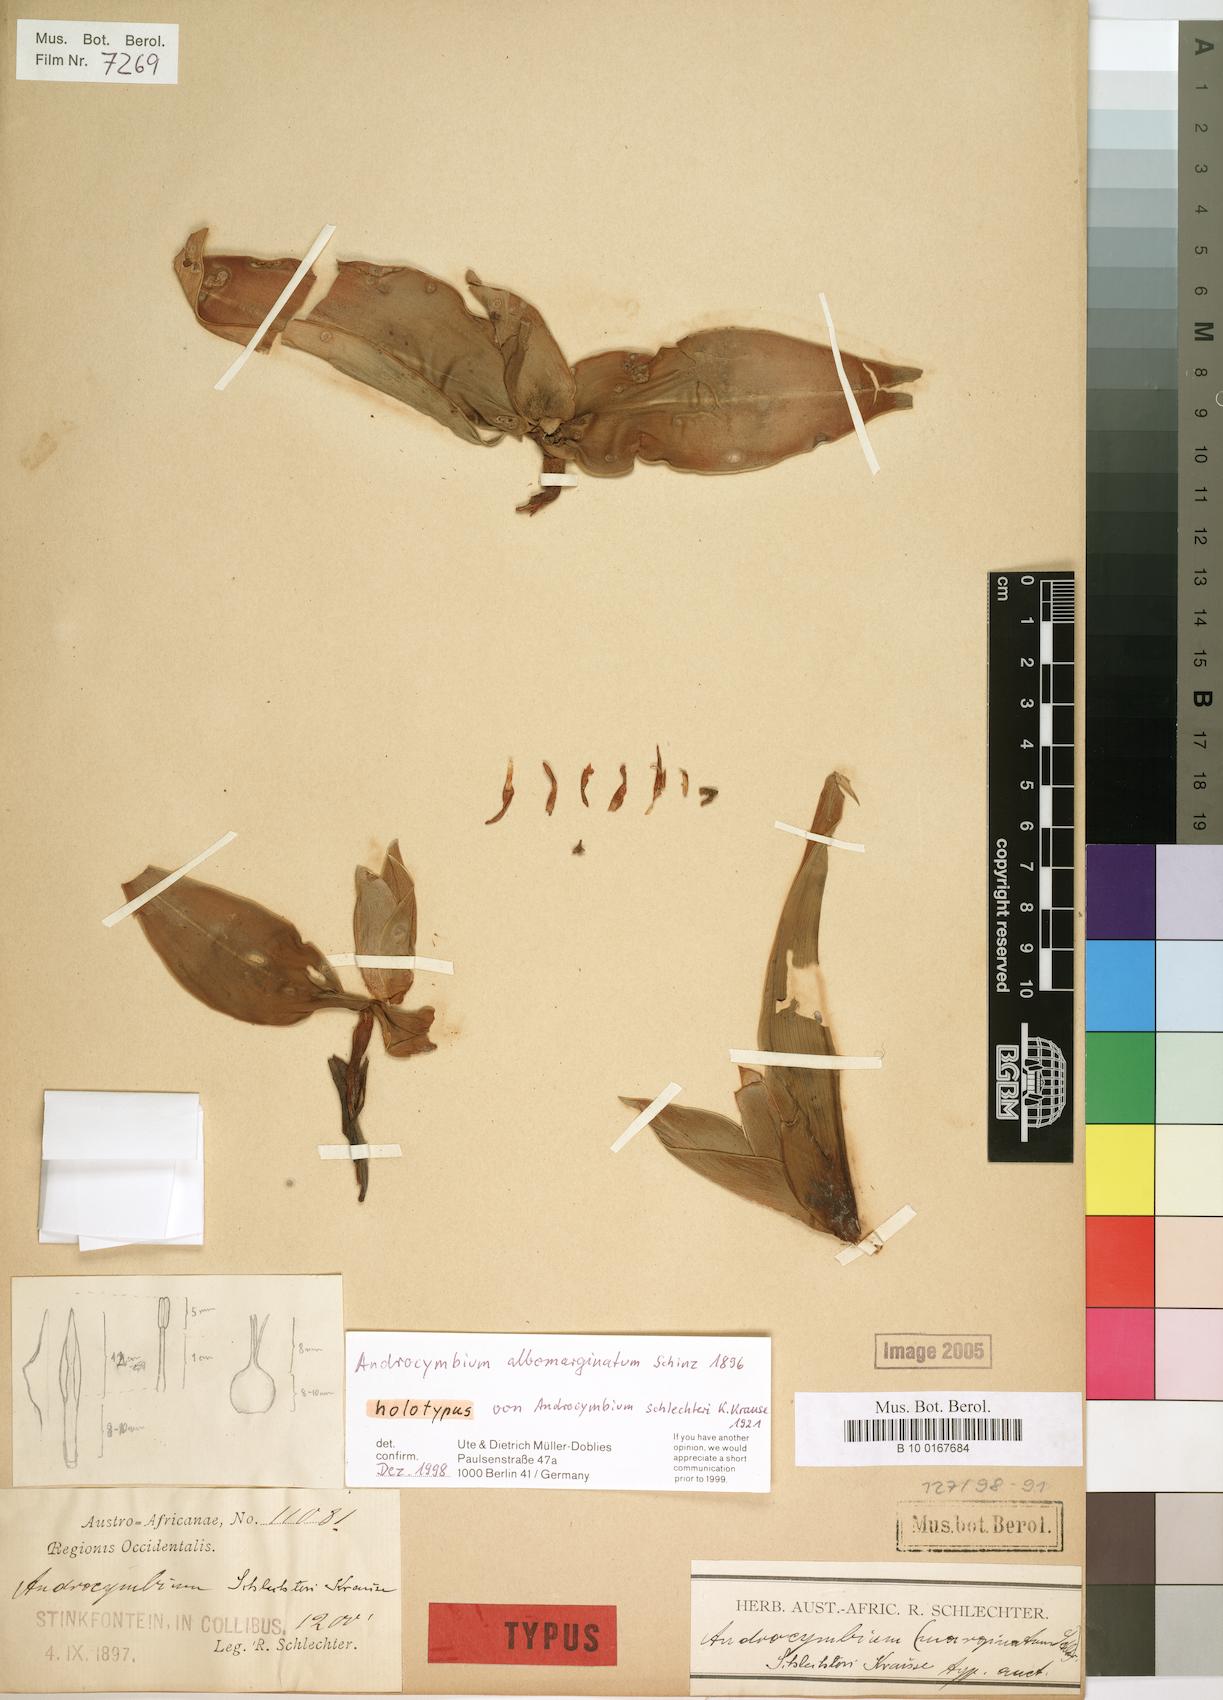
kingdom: Plantae
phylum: Tracheophyta
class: Liliopsida
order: Liliales
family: Colchicaceae
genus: Colchicum
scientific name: Colchicum albomarginatum
